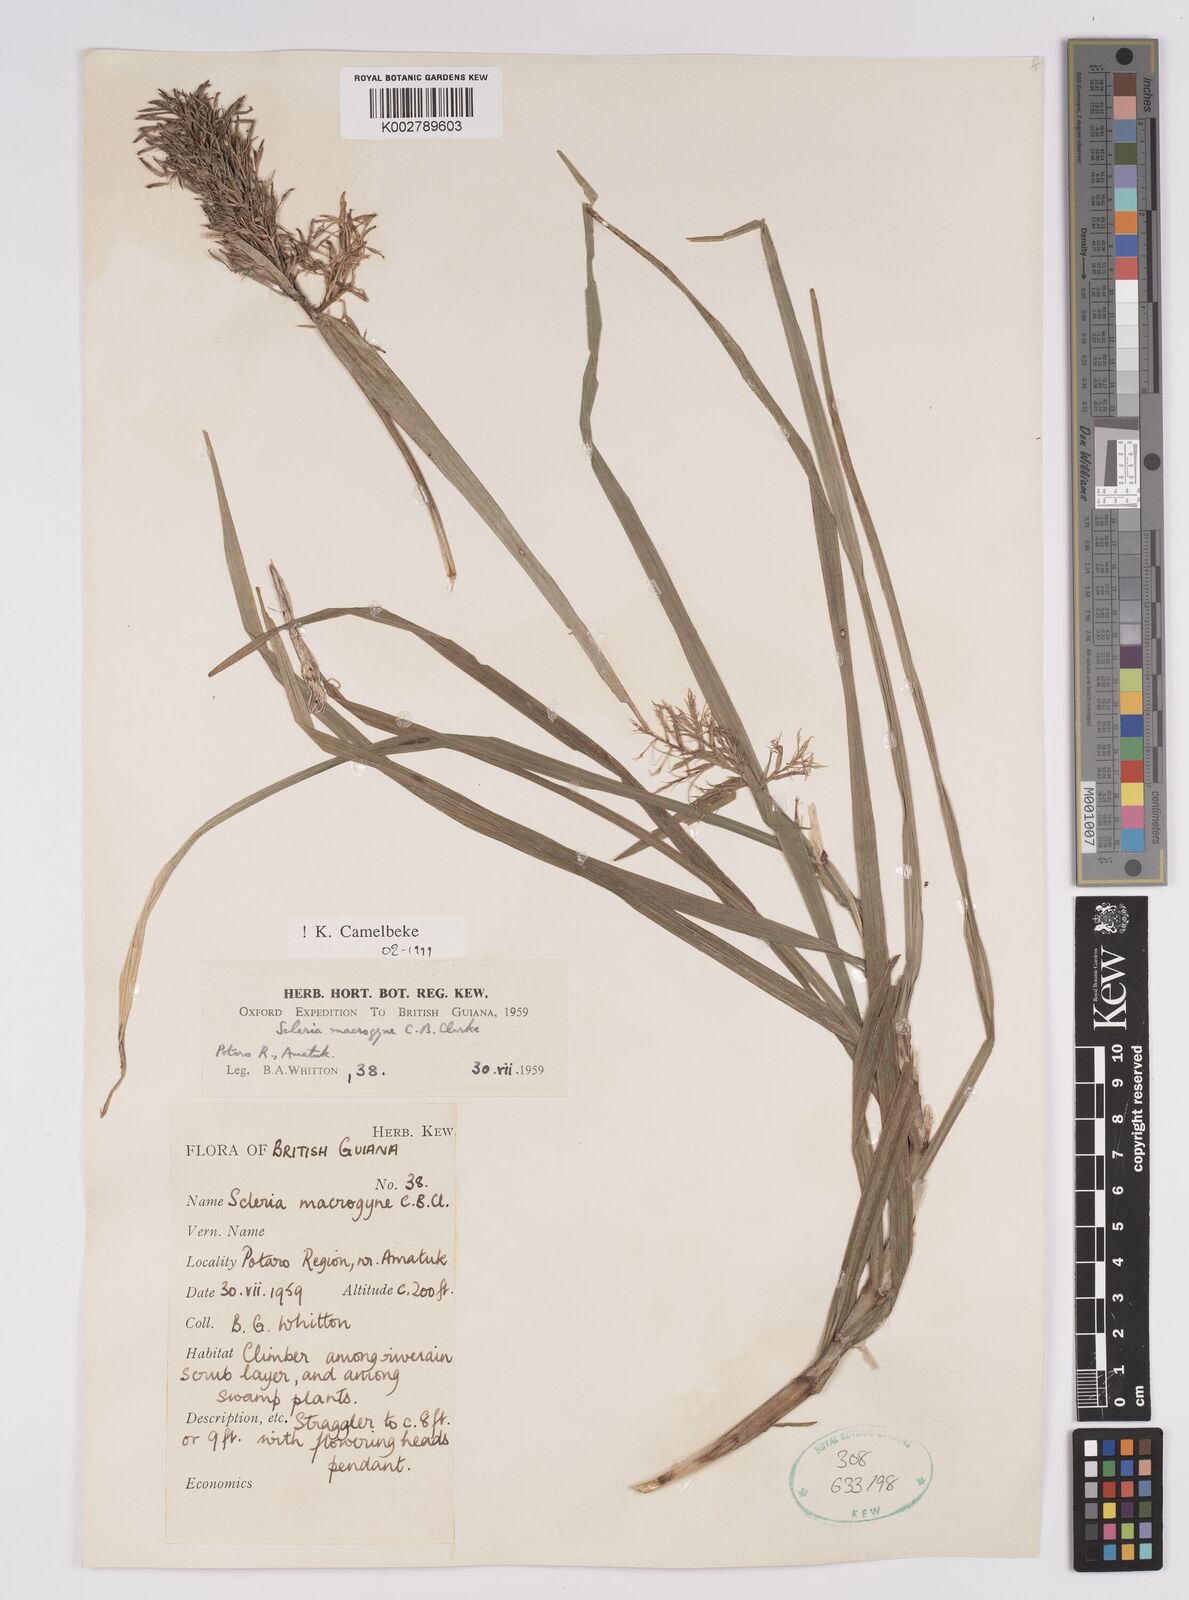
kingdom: Plantae
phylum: Tracheophyta
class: Liliopsida
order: Poales
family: Cyperaceae
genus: Scleria
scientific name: Scleria macrogyne
